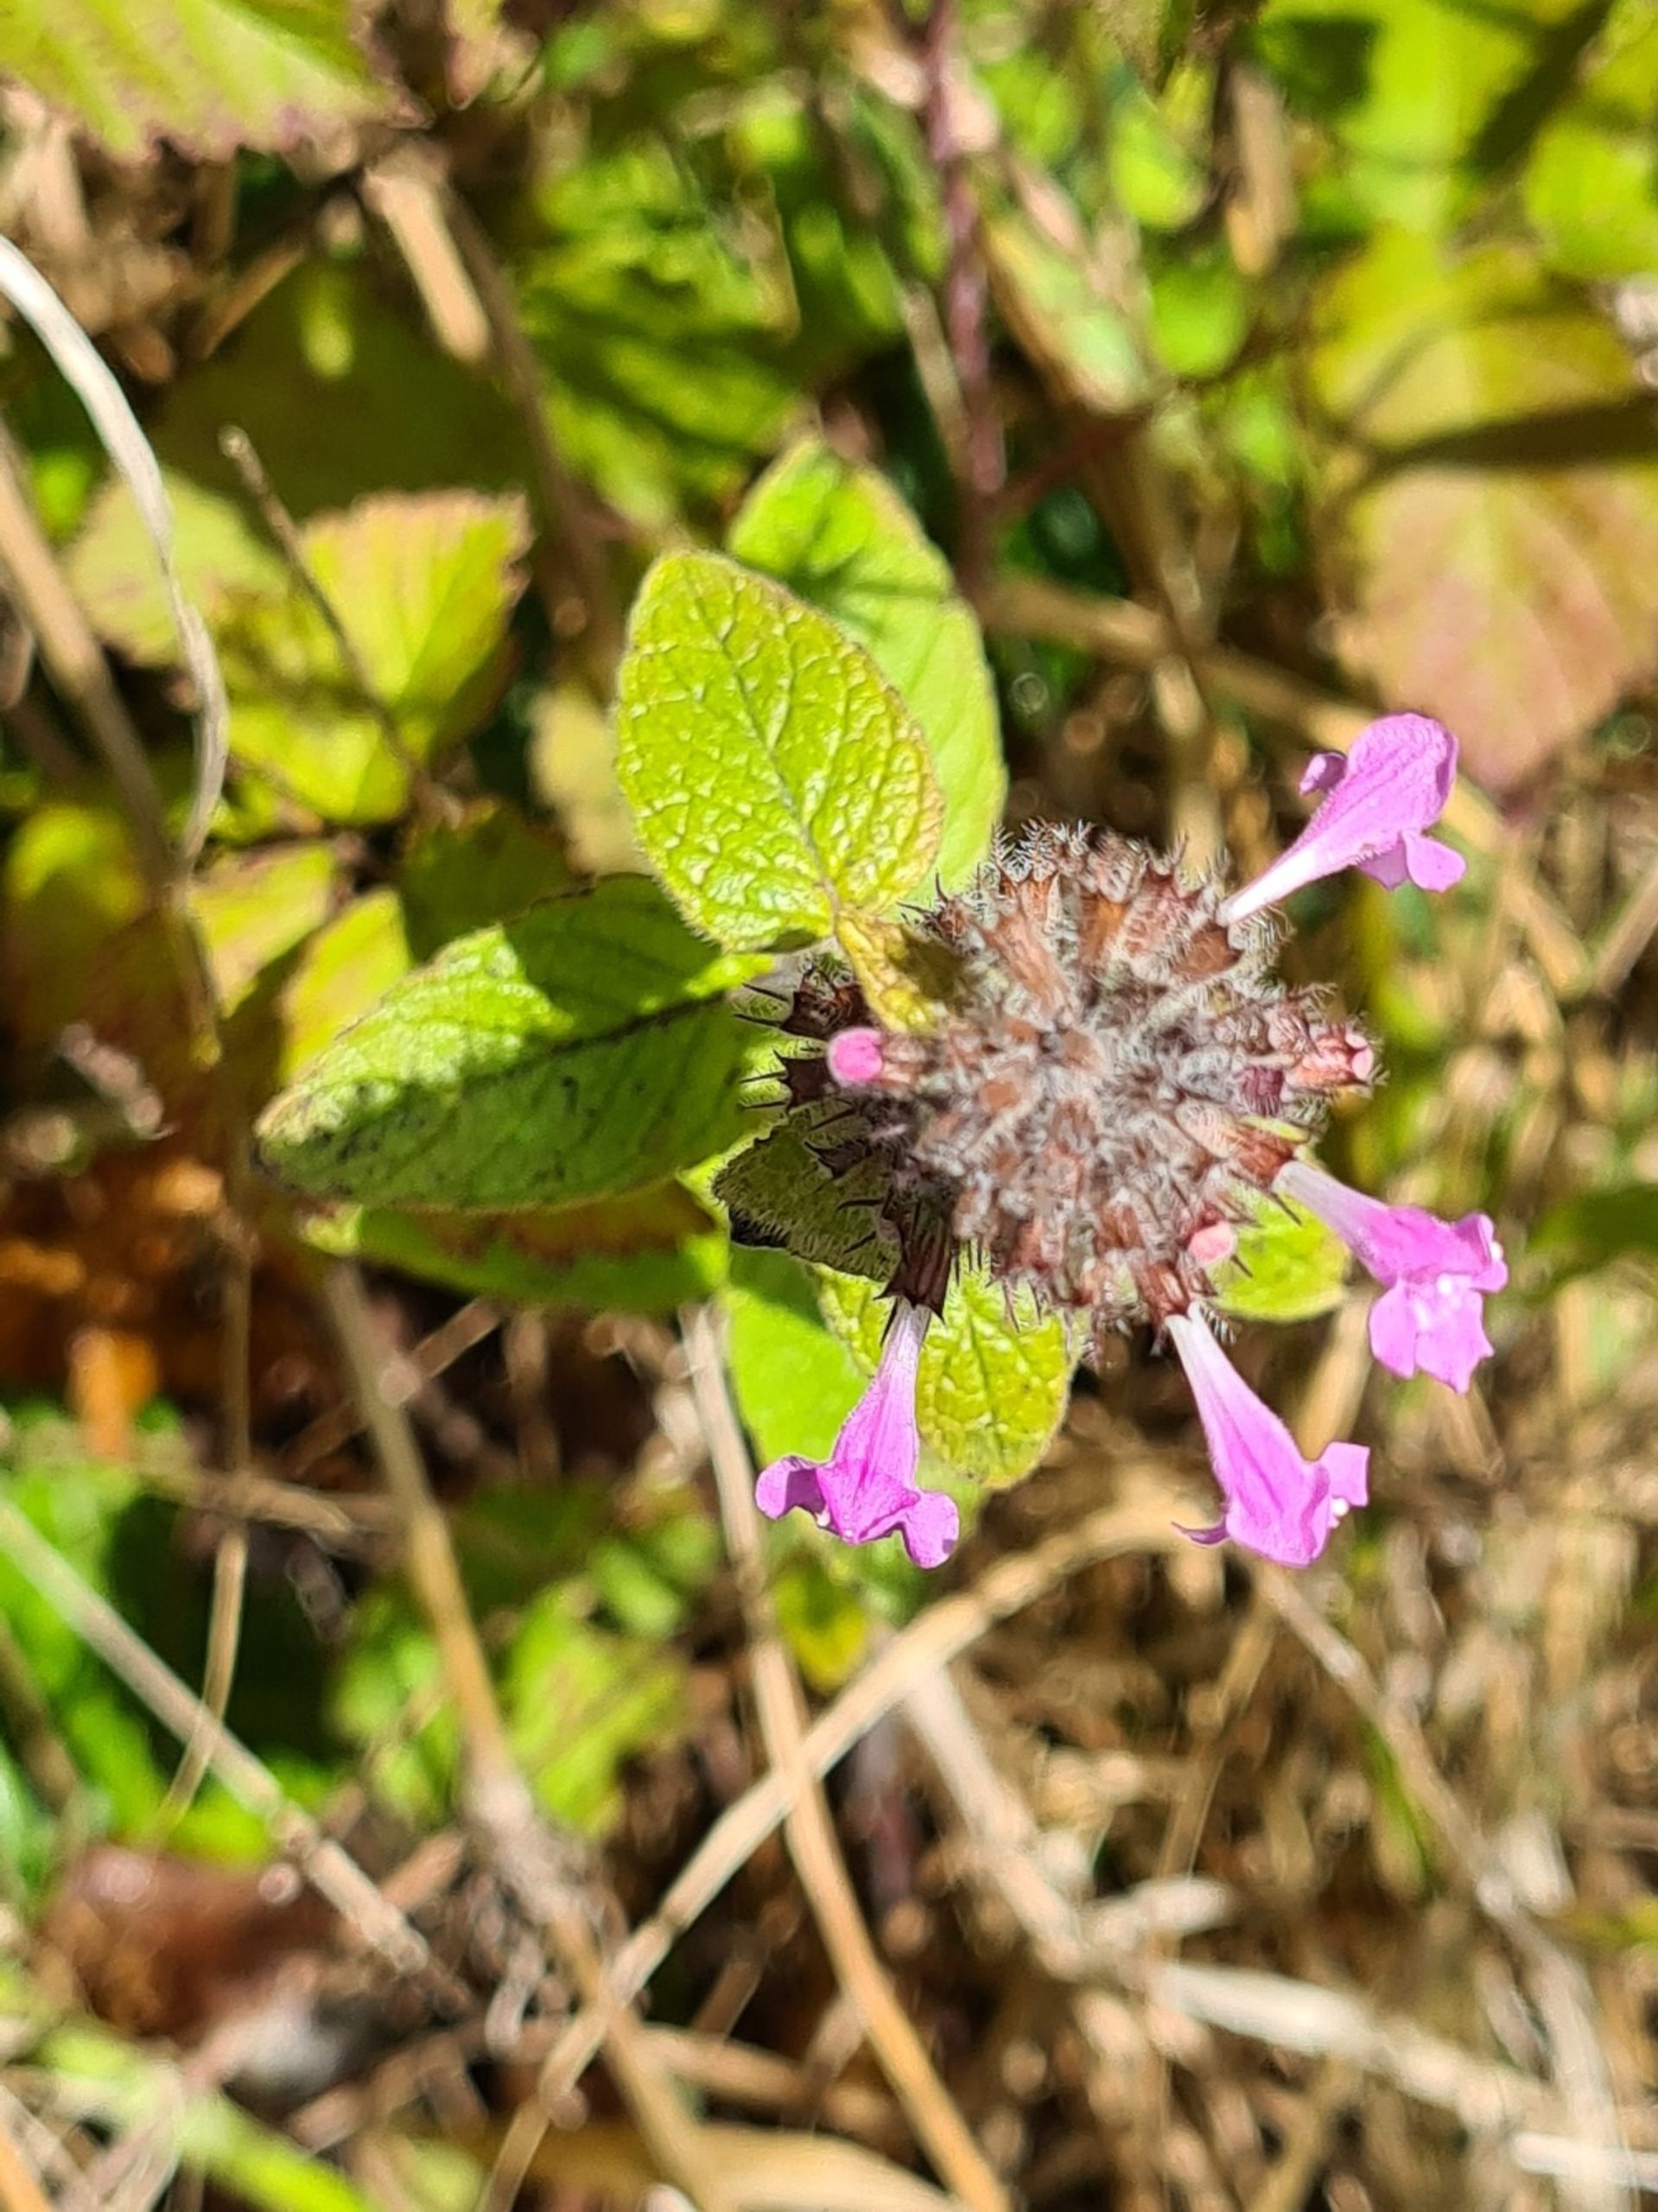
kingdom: Plantae
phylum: Tracheophyta
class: Magnoliopsida
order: Lamiales
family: Lamiaceae
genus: Clinopodium
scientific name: Clinopodium vulgare
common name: Kransbørste
